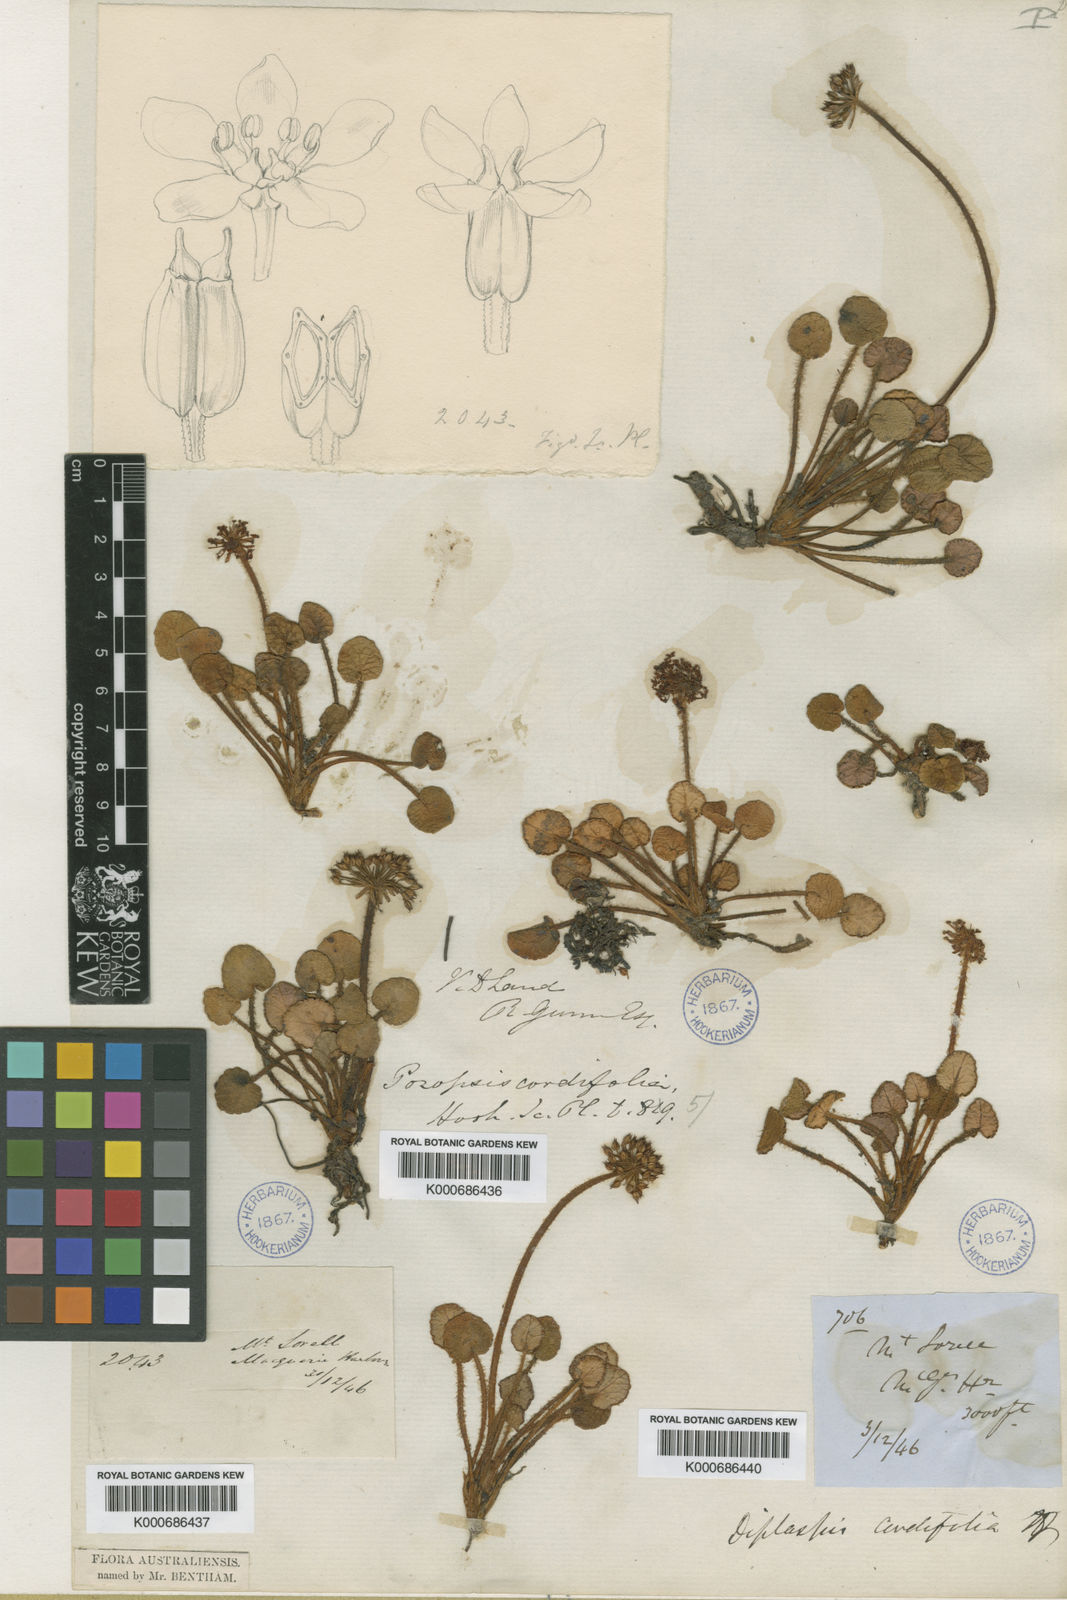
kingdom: Plantae
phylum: Tracheophyta
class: Magnoliopsida
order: Apiales
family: Apiaceae
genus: Diplaspis
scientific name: Diplaspis cordifolia
